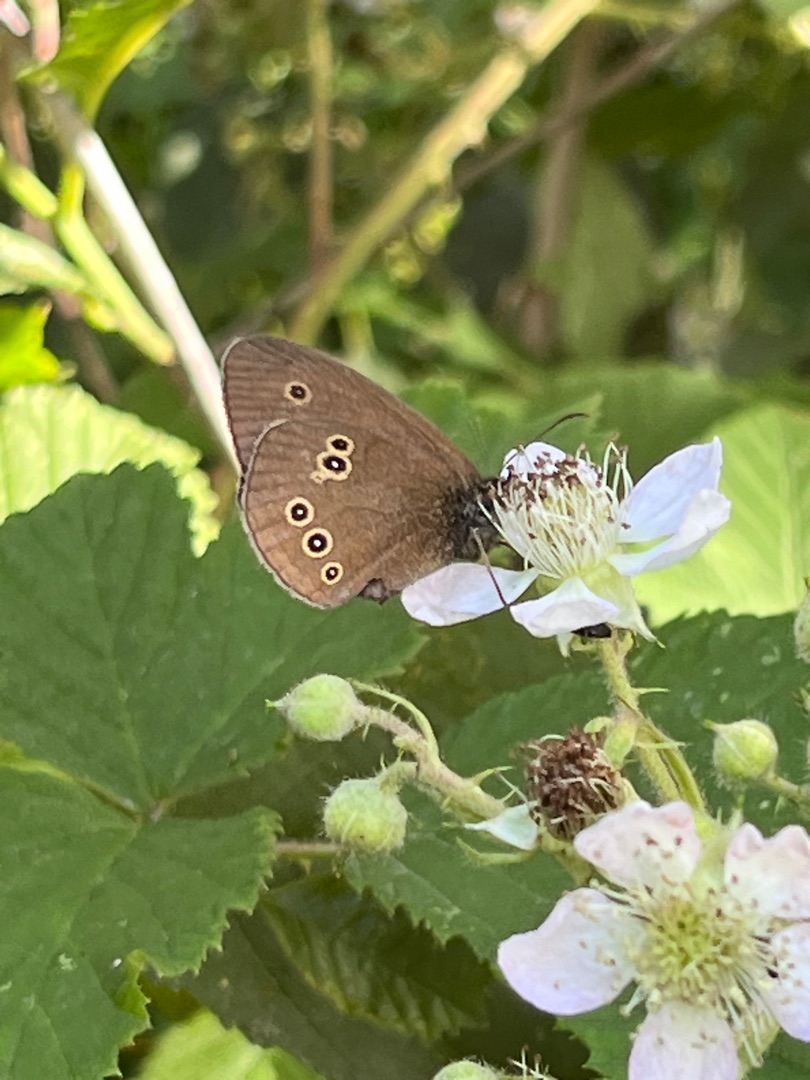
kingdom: Animalia
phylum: Arthropoda
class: Insecta
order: Lepidoptera
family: Nymphalidae
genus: Aphantopus
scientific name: Aphantopus hyperantus
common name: Engrandøje
